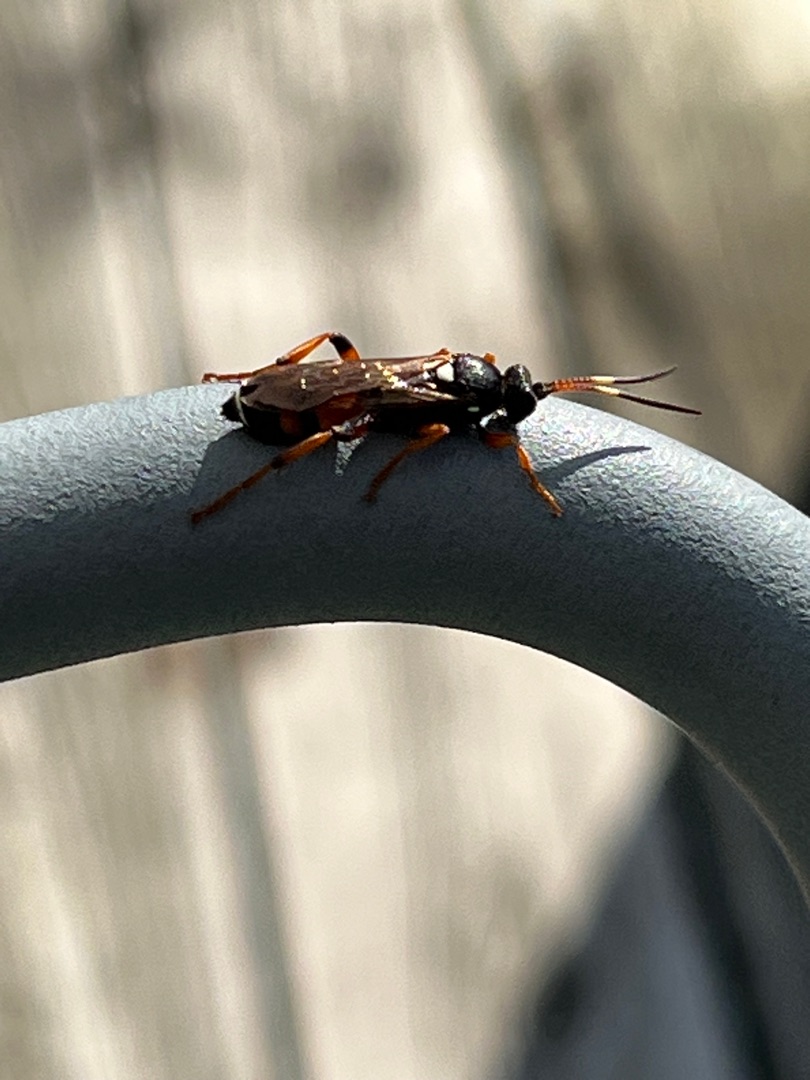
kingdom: Animalia
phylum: Arthropoda
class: Insecta
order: Hymenoptera
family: Ichneumonidae
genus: Ichneumon
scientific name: Ichneumon sarcitorius
